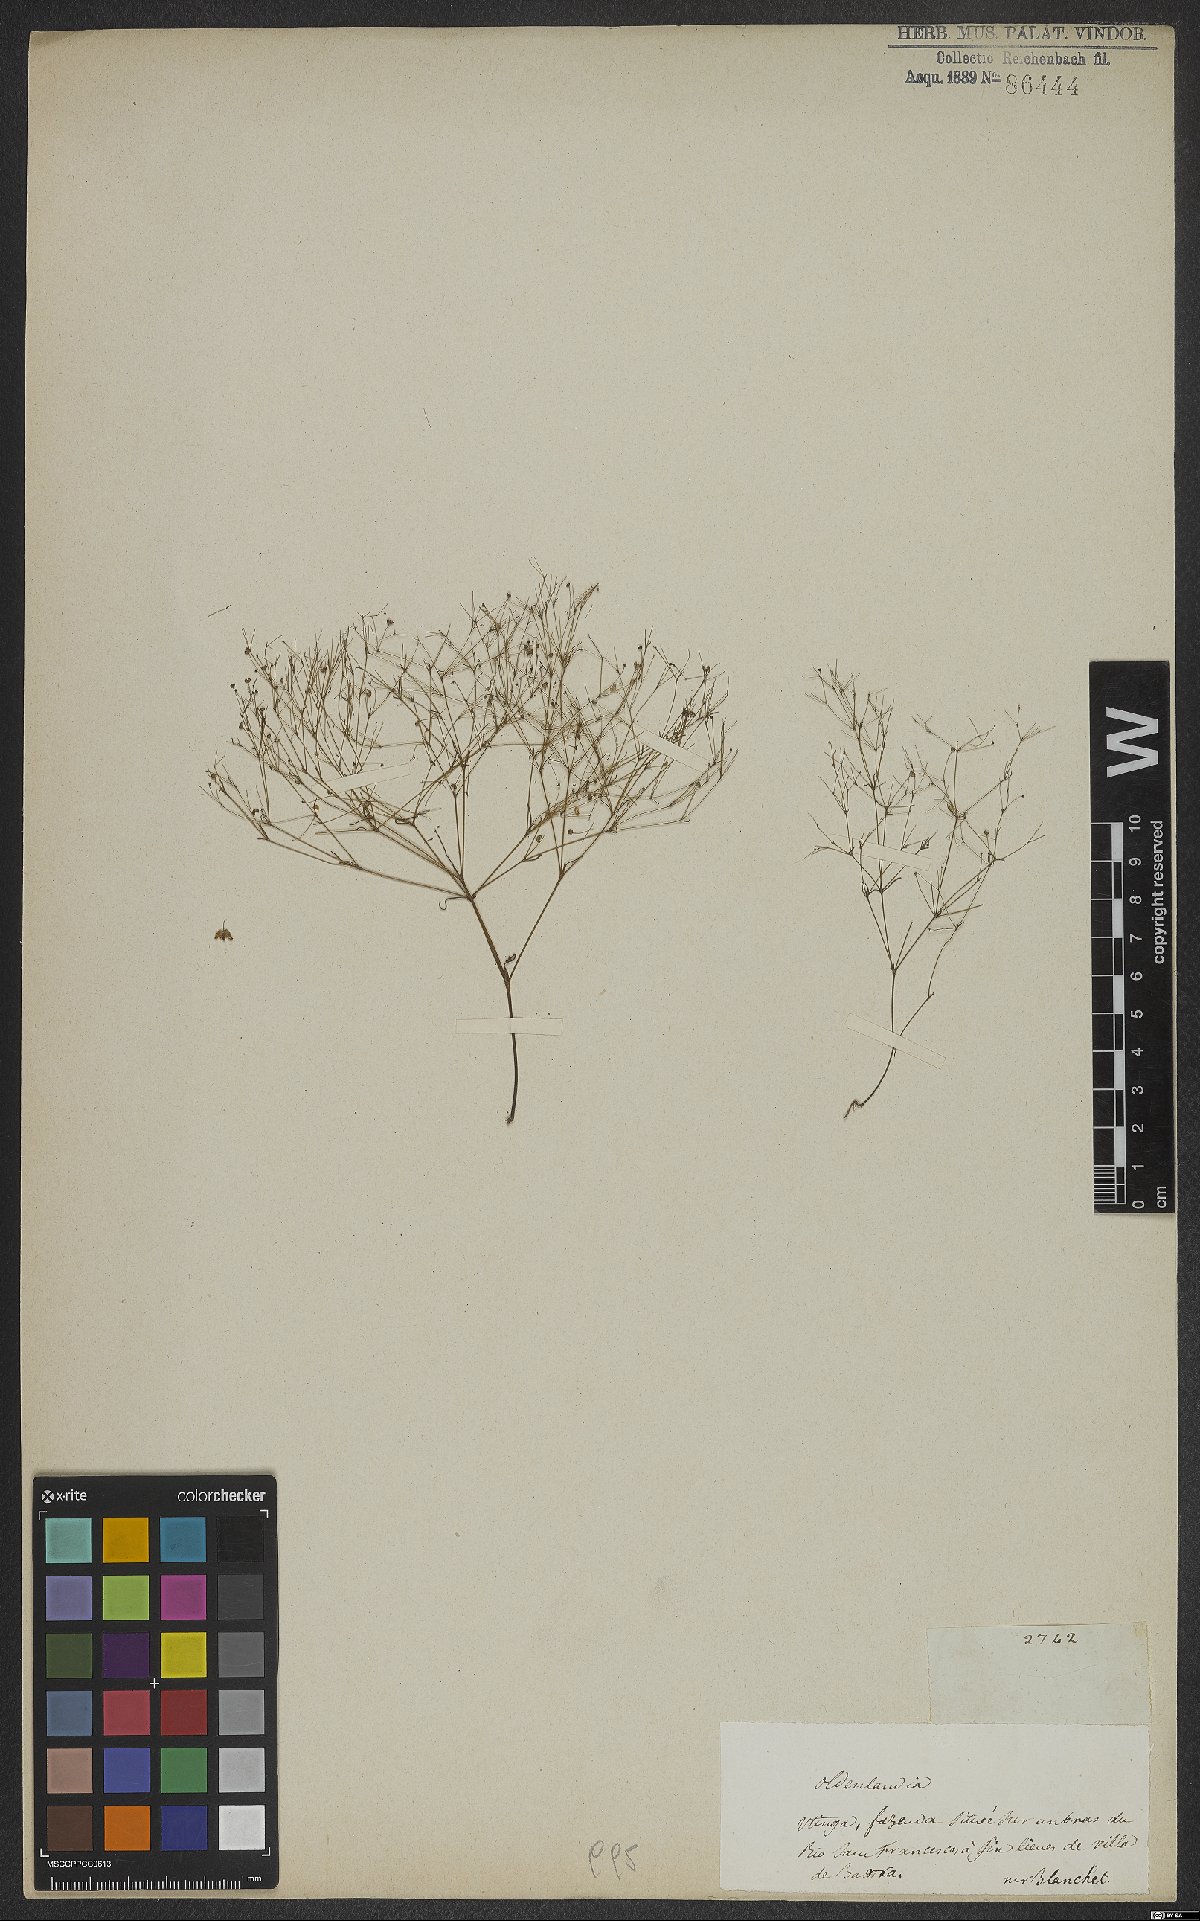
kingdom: Plantae
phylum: Tracheophyta
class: Magnoliopsida
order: Gentianales
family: Rubiaceae
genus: Oldenlandia
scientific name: Oldenlandia
